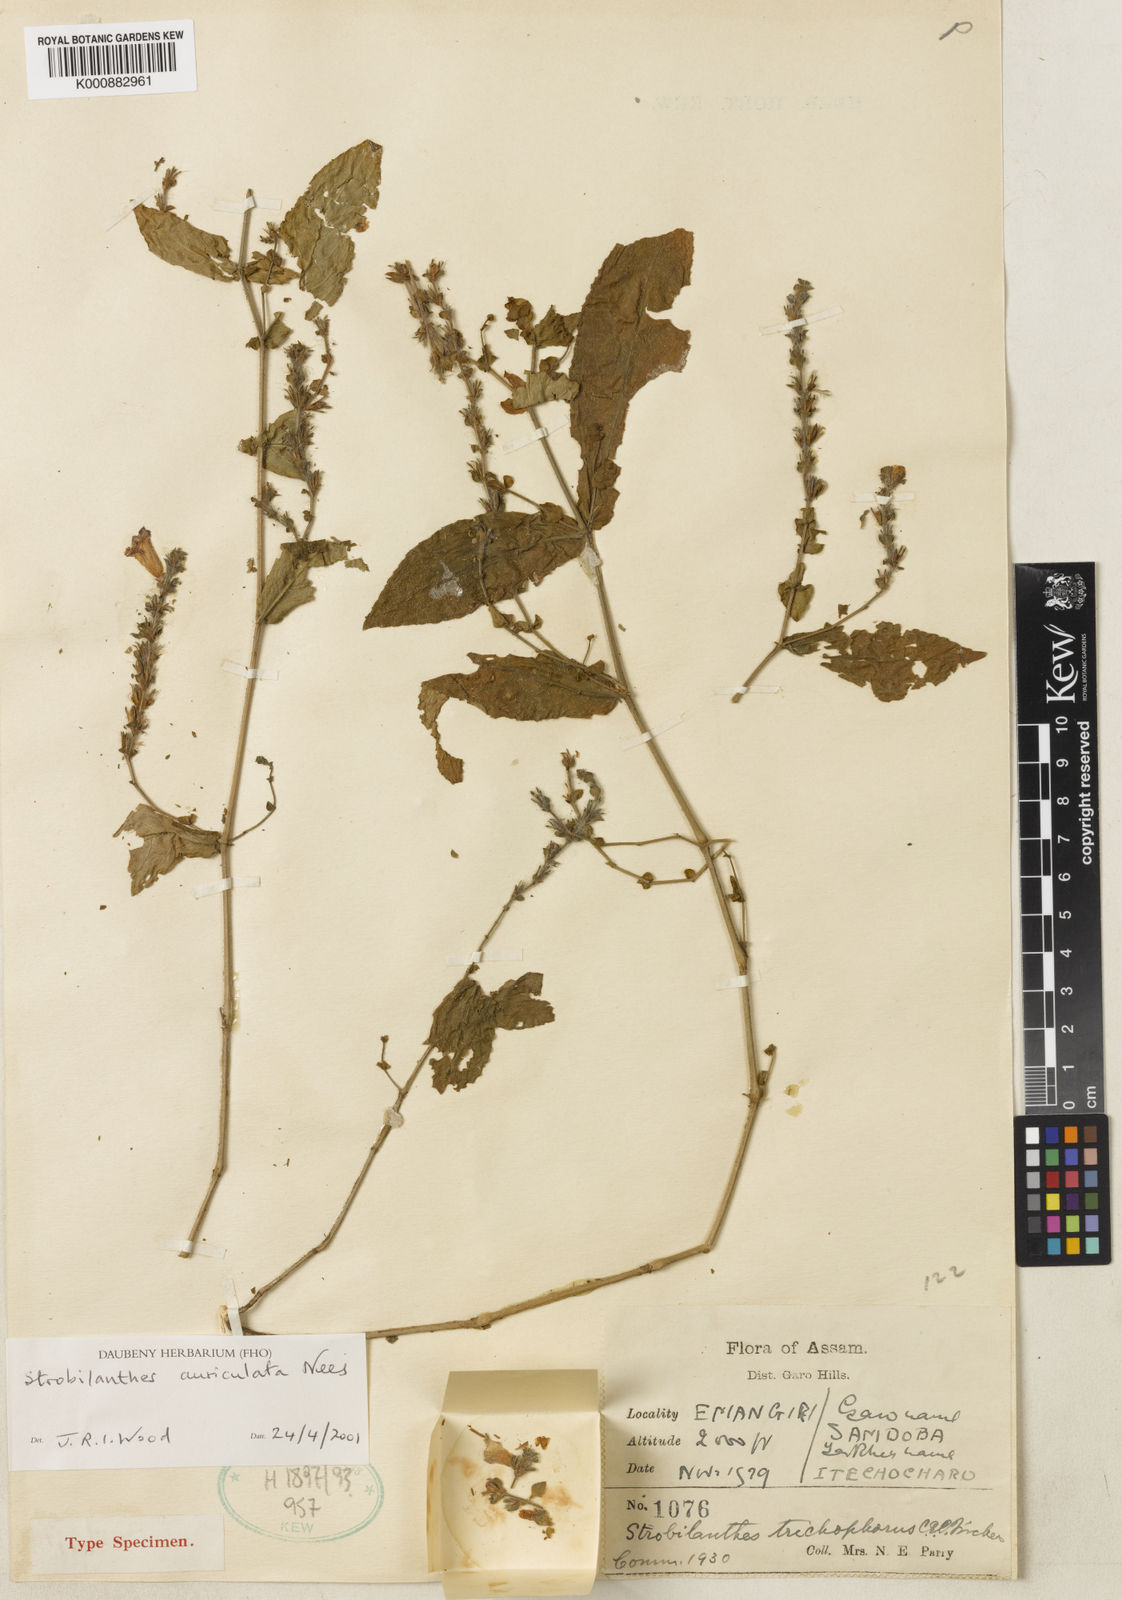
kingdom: Plantae
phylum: Tracheophyta
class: Magnoliopsida
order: Lamiales
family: Acanthaceae
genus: Strobilanthes
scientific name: Strobilanthes auriculata
